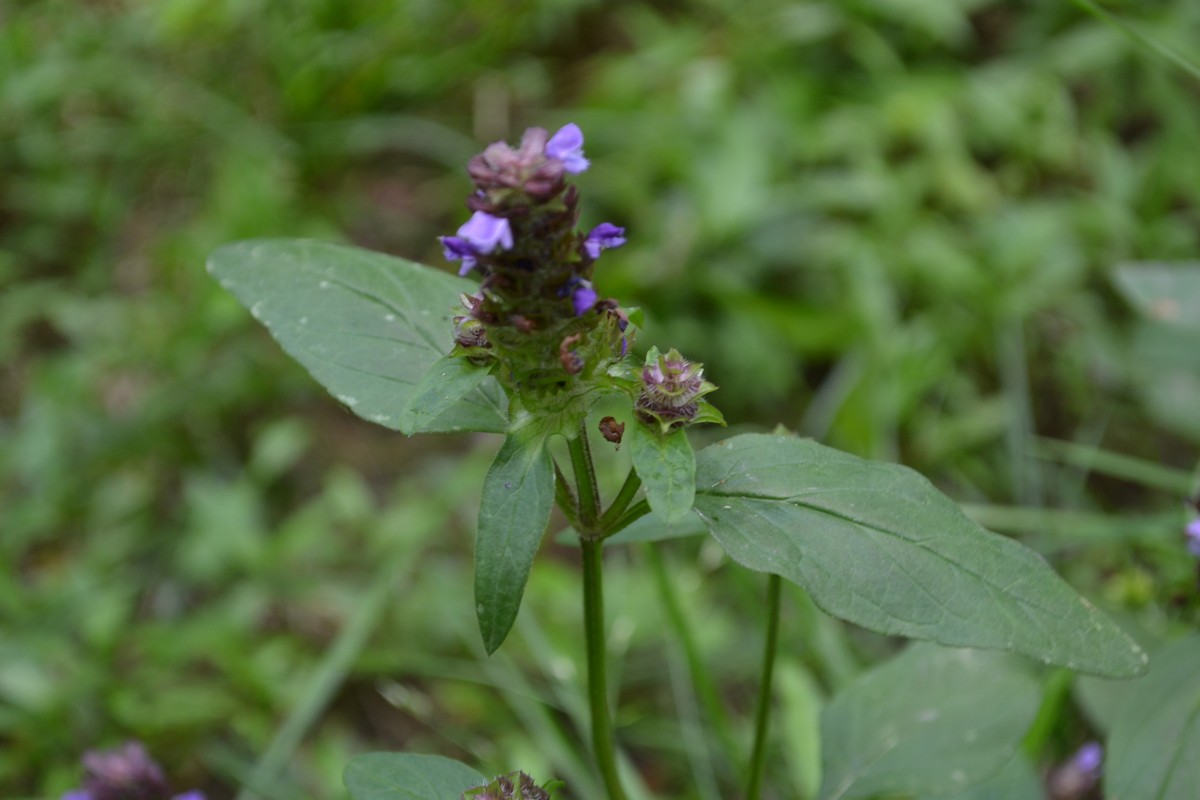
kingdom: Plantae
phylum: Tracheophyta
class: Magnoliopsida
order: Lamiales
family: Lamiaceae
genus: Prunella
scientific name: Prunella vulgaris
